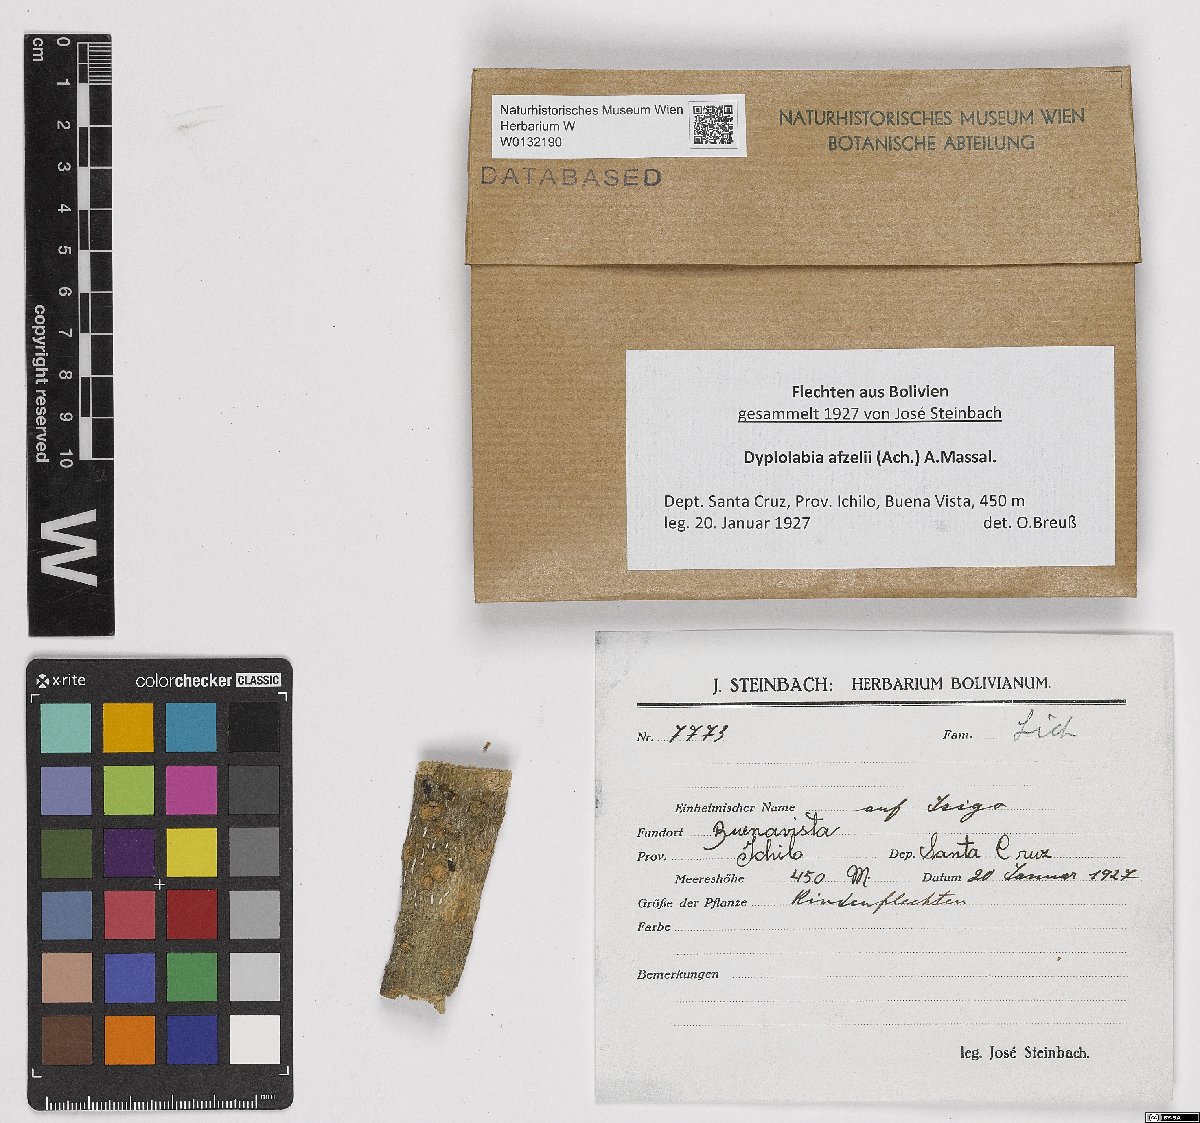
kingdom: Fungi
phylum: Ascomycota
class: Lecanoromycetes
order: Ostropales
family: Graphidaceae
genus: Dyplolabia
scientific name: Dyplolabia afzelii
